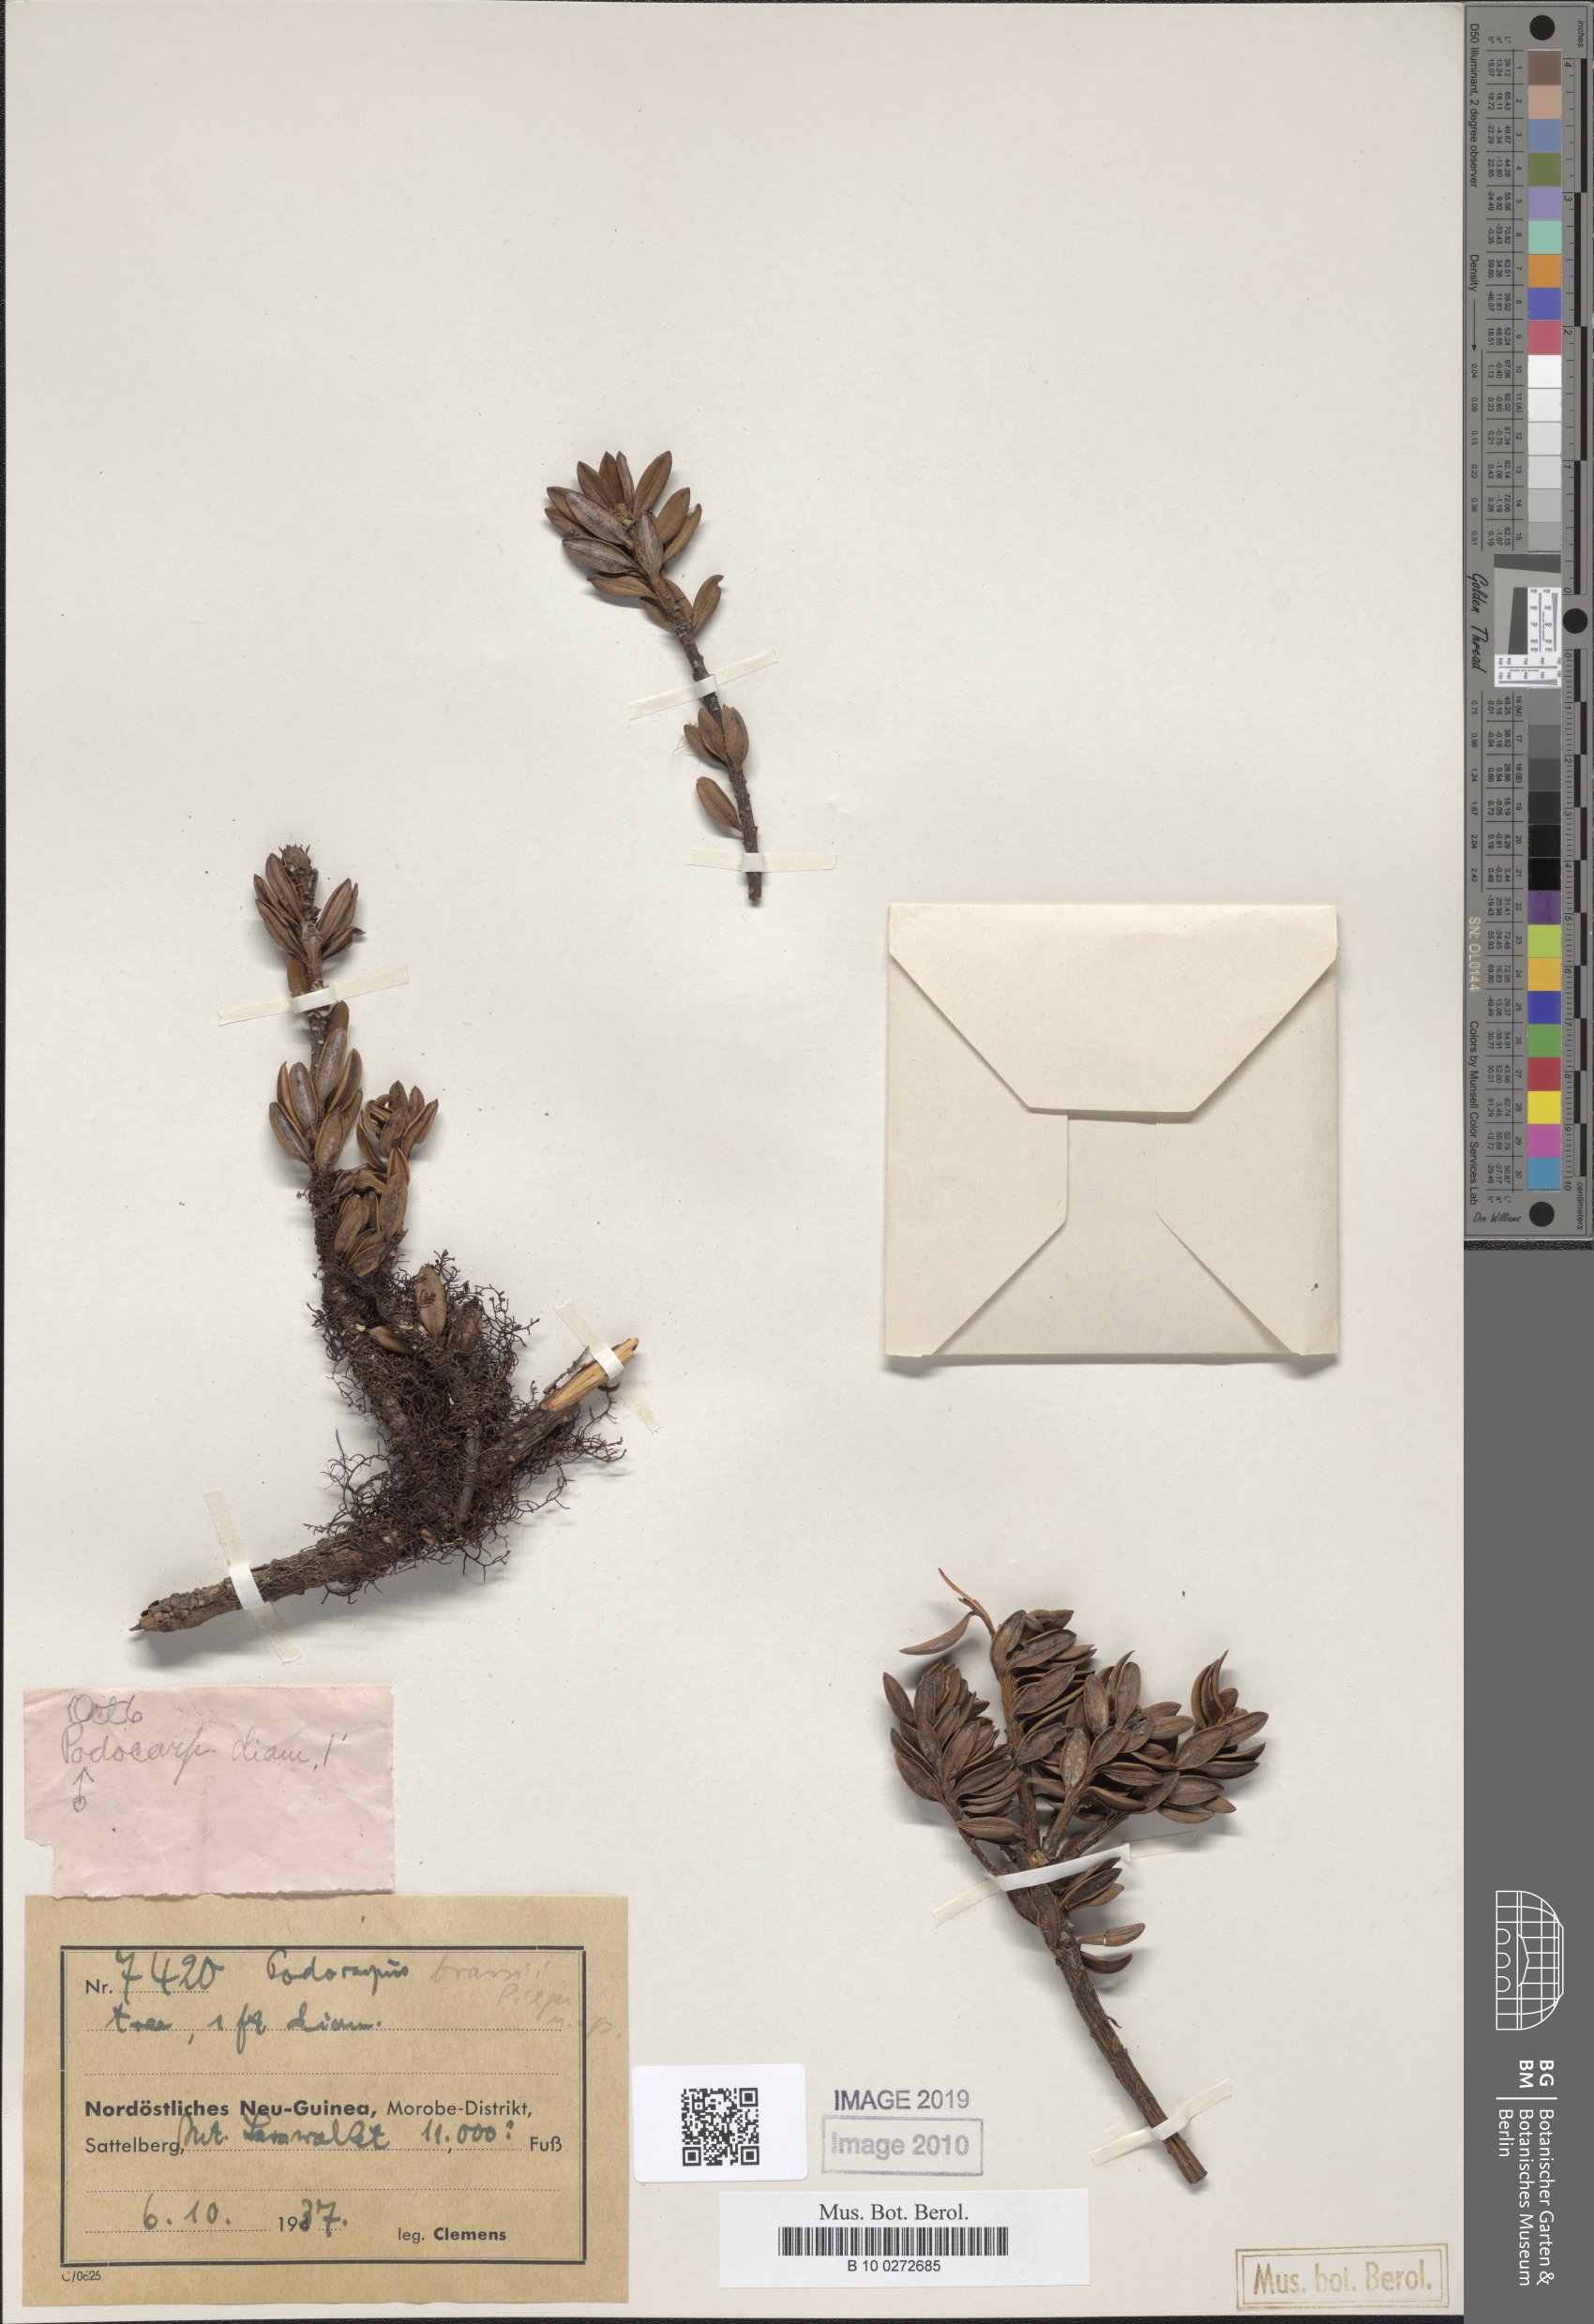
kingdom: Plantae
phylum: Tracheophyta
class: Pinopsida
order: Pinales
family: Podocarpaceae
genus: Podocarpus
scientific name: Podocarpus brassii
